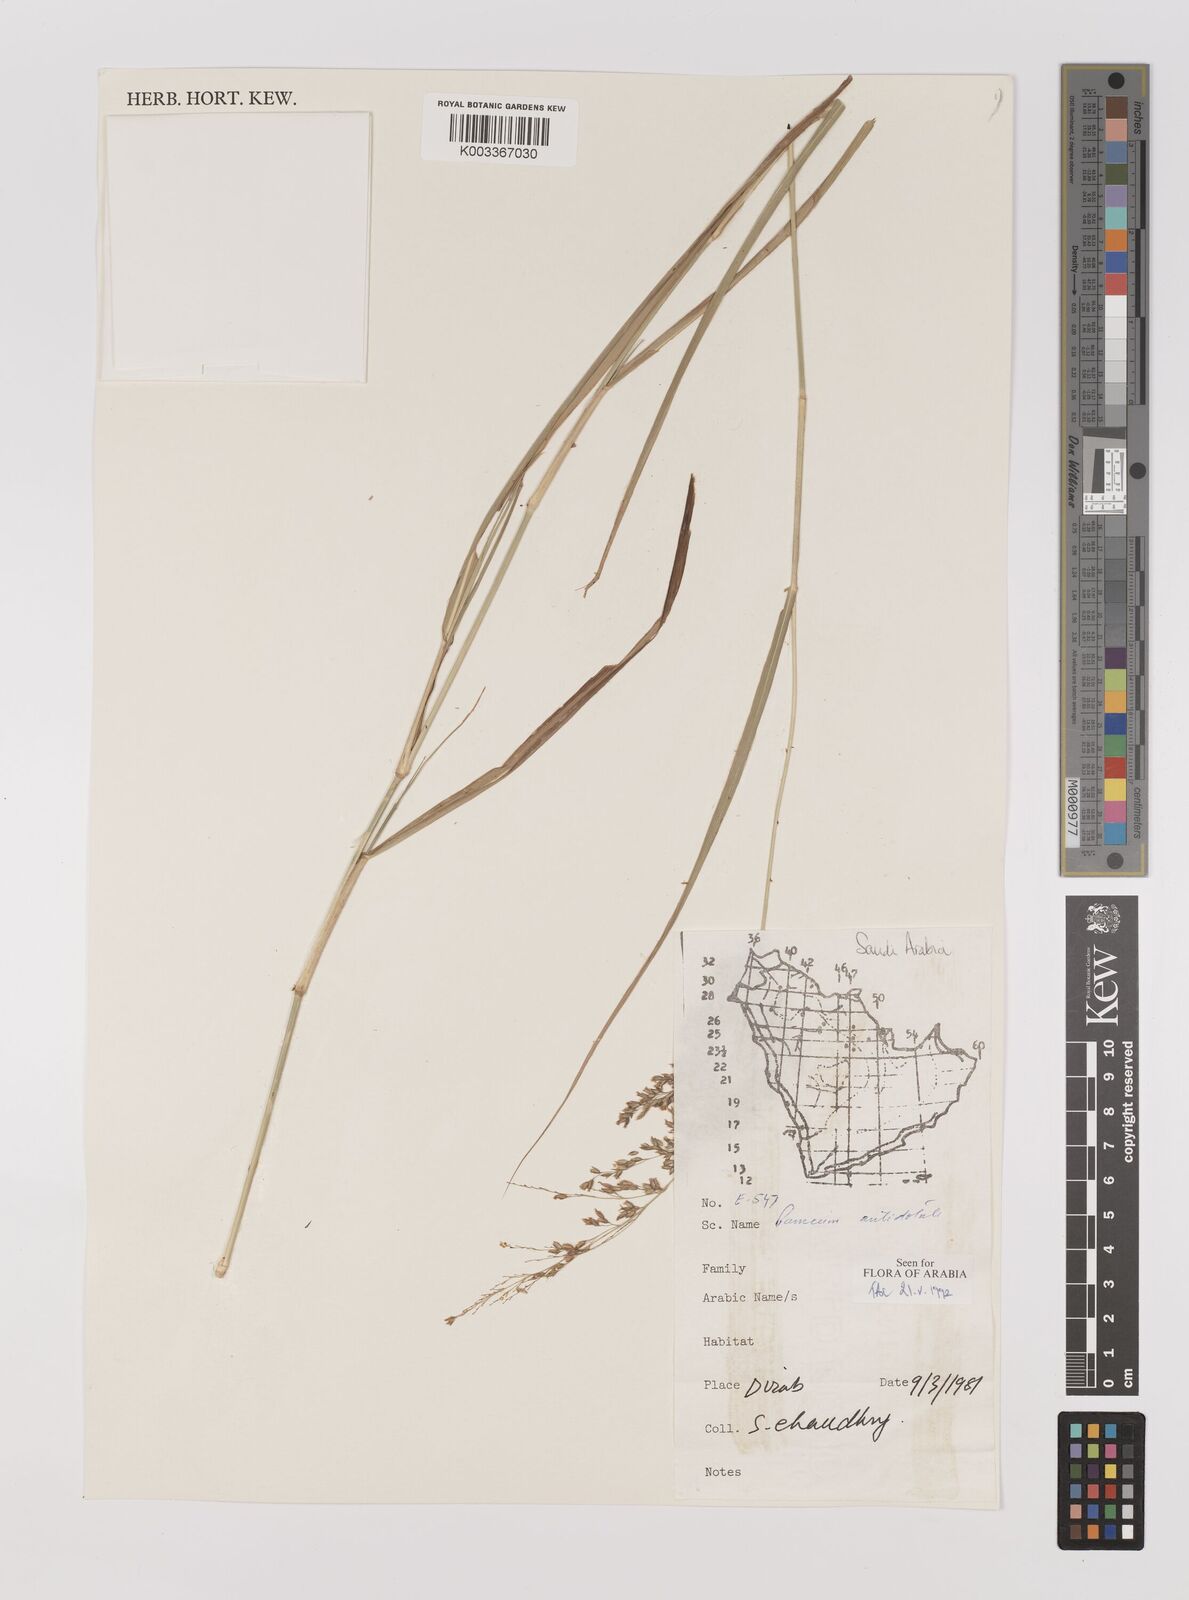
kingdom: Plantae
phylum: Tracheophyta
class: Liliopsida
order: Poales
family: Poaceae
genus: Panicum
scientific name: Panicum antidotale
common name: Blue panicum
